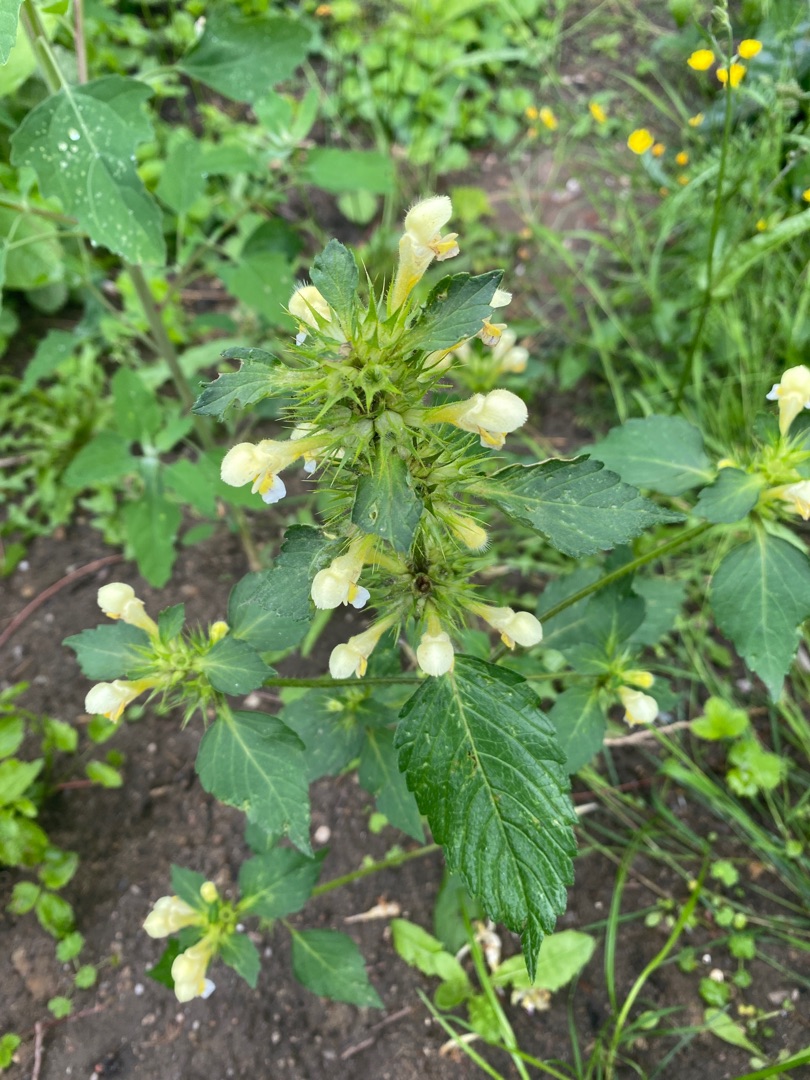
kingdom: Plantae
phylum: Tracheophyta
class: Magnoliopsida
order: Lamiales
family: Lamiaceae
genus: Galeopsis
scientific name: Galeopsis speciosa
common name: Hamp-hanekro
